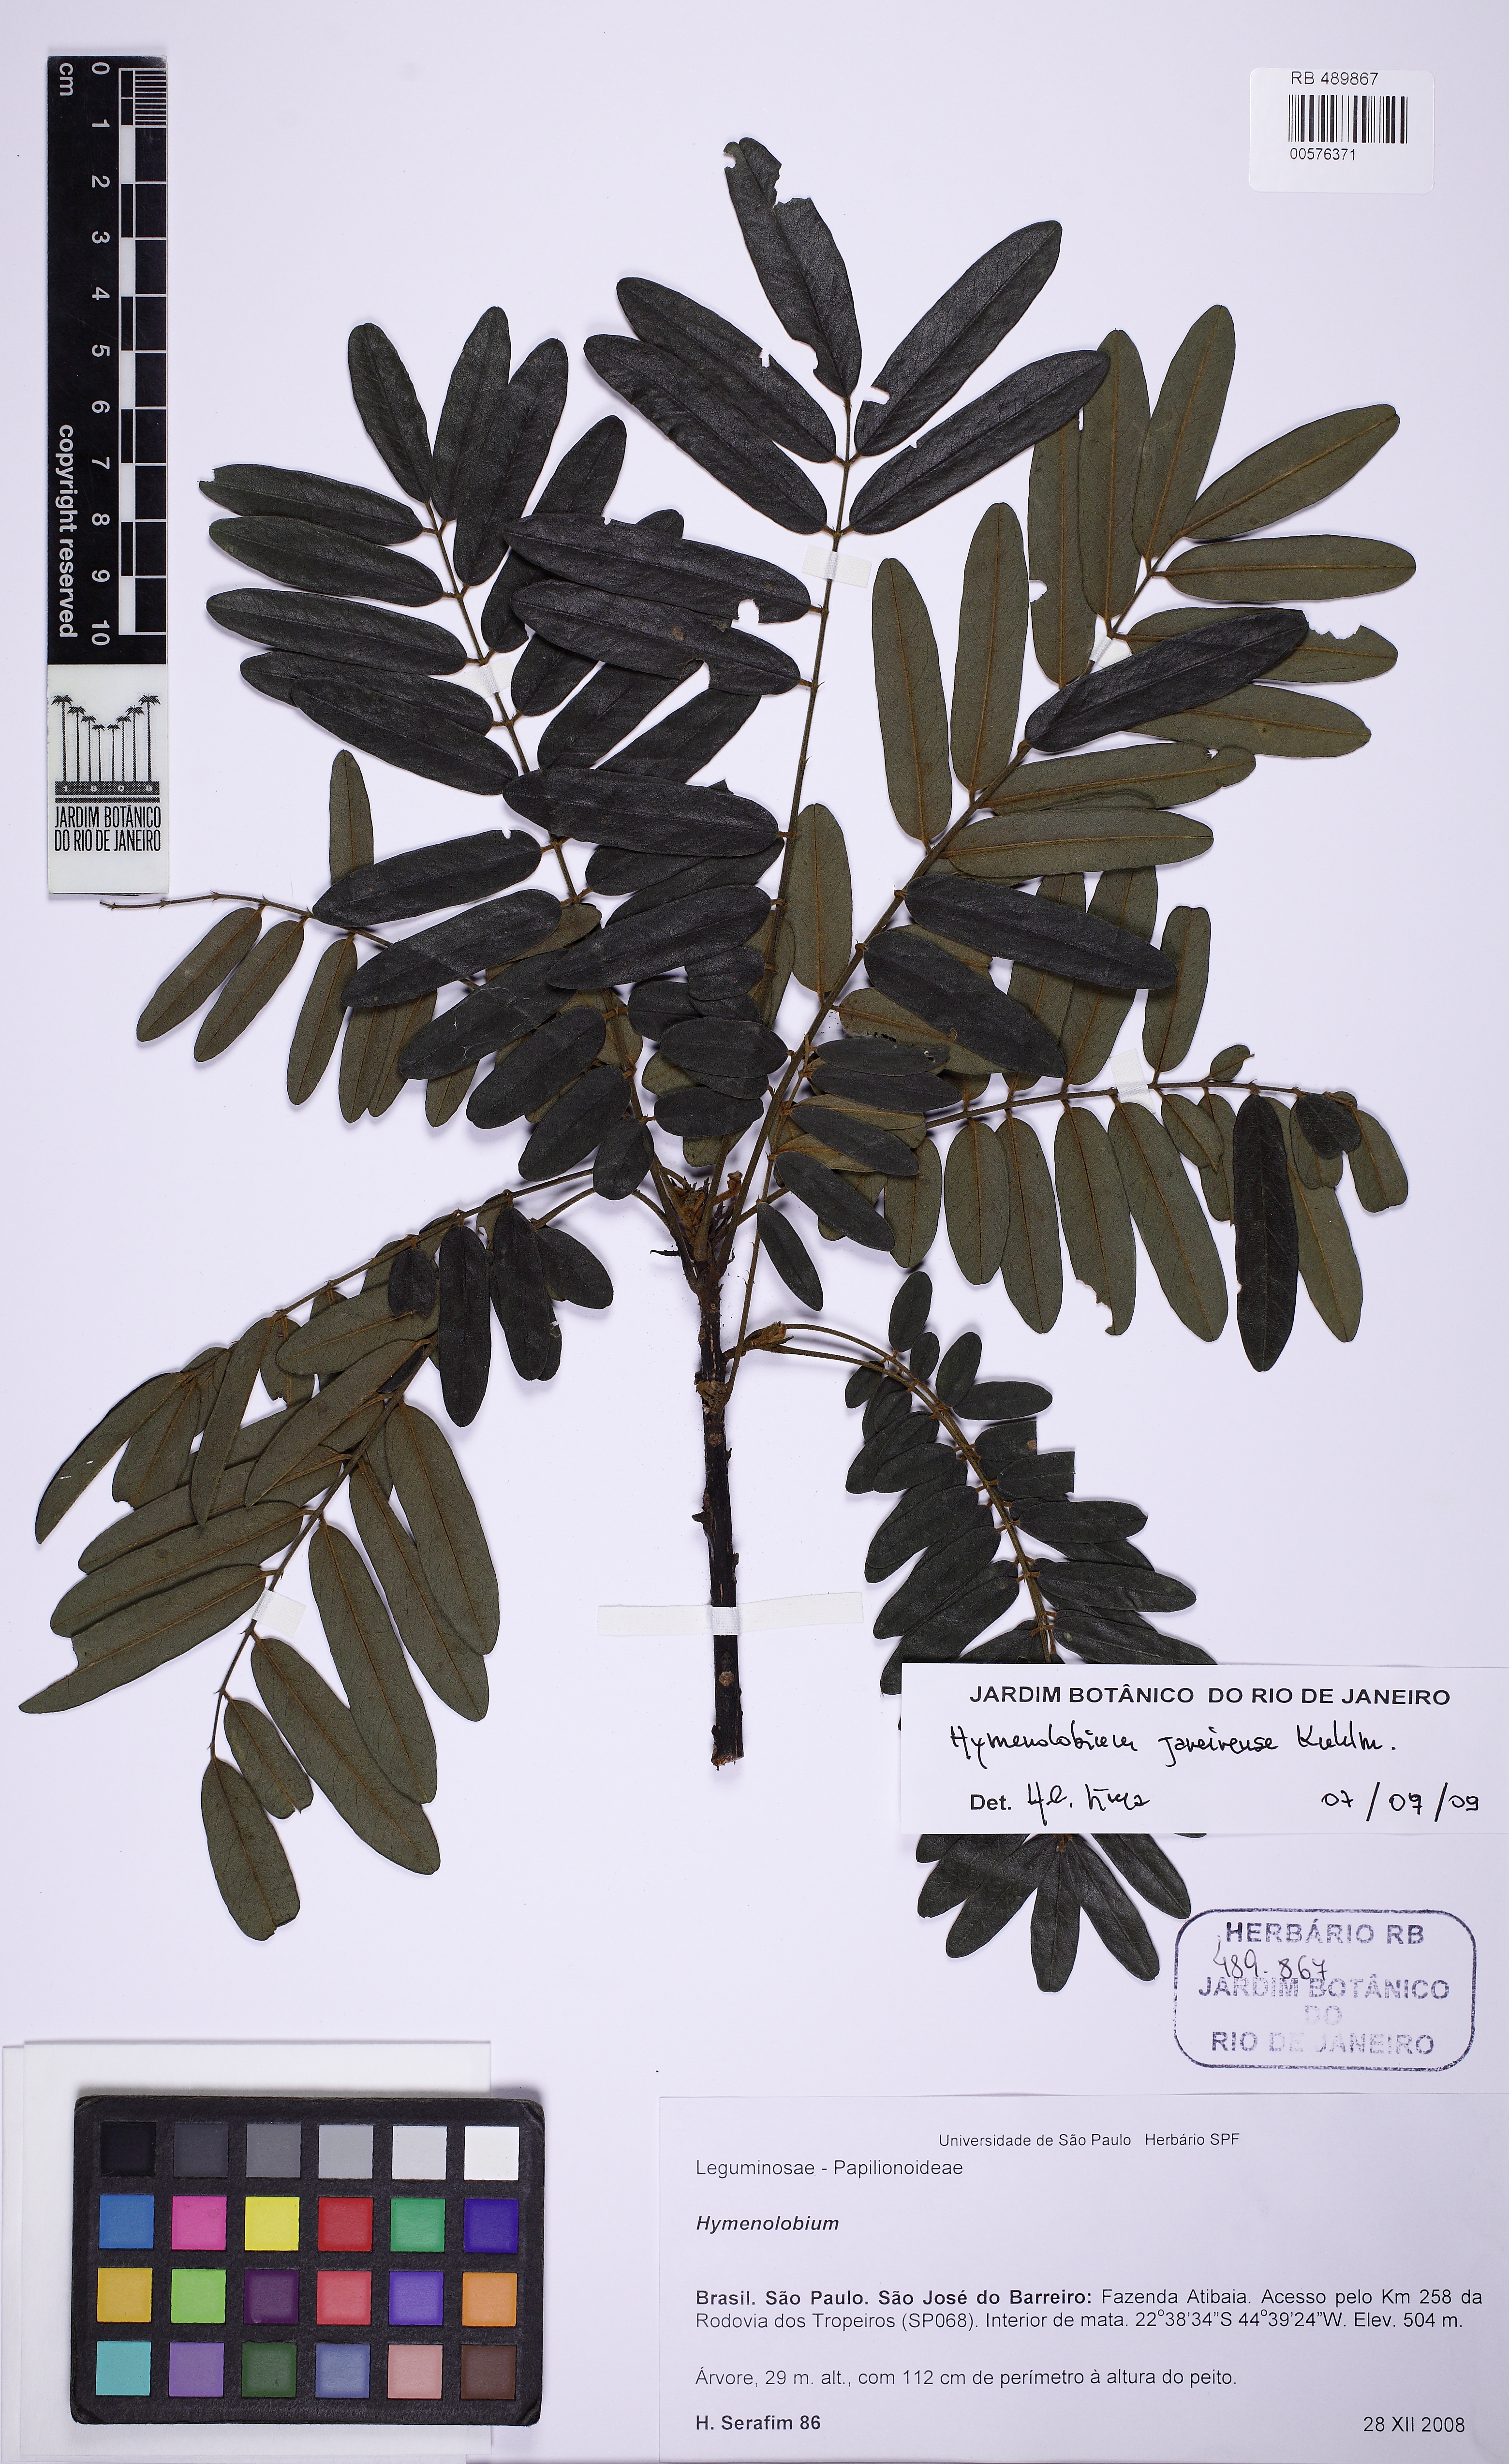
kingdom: Plantae
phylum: Tracheophyta
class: Magnoliopsida
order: Fabales
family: Fabaceae
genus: Hymenolobium
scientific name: Hymenolobium janeirense
